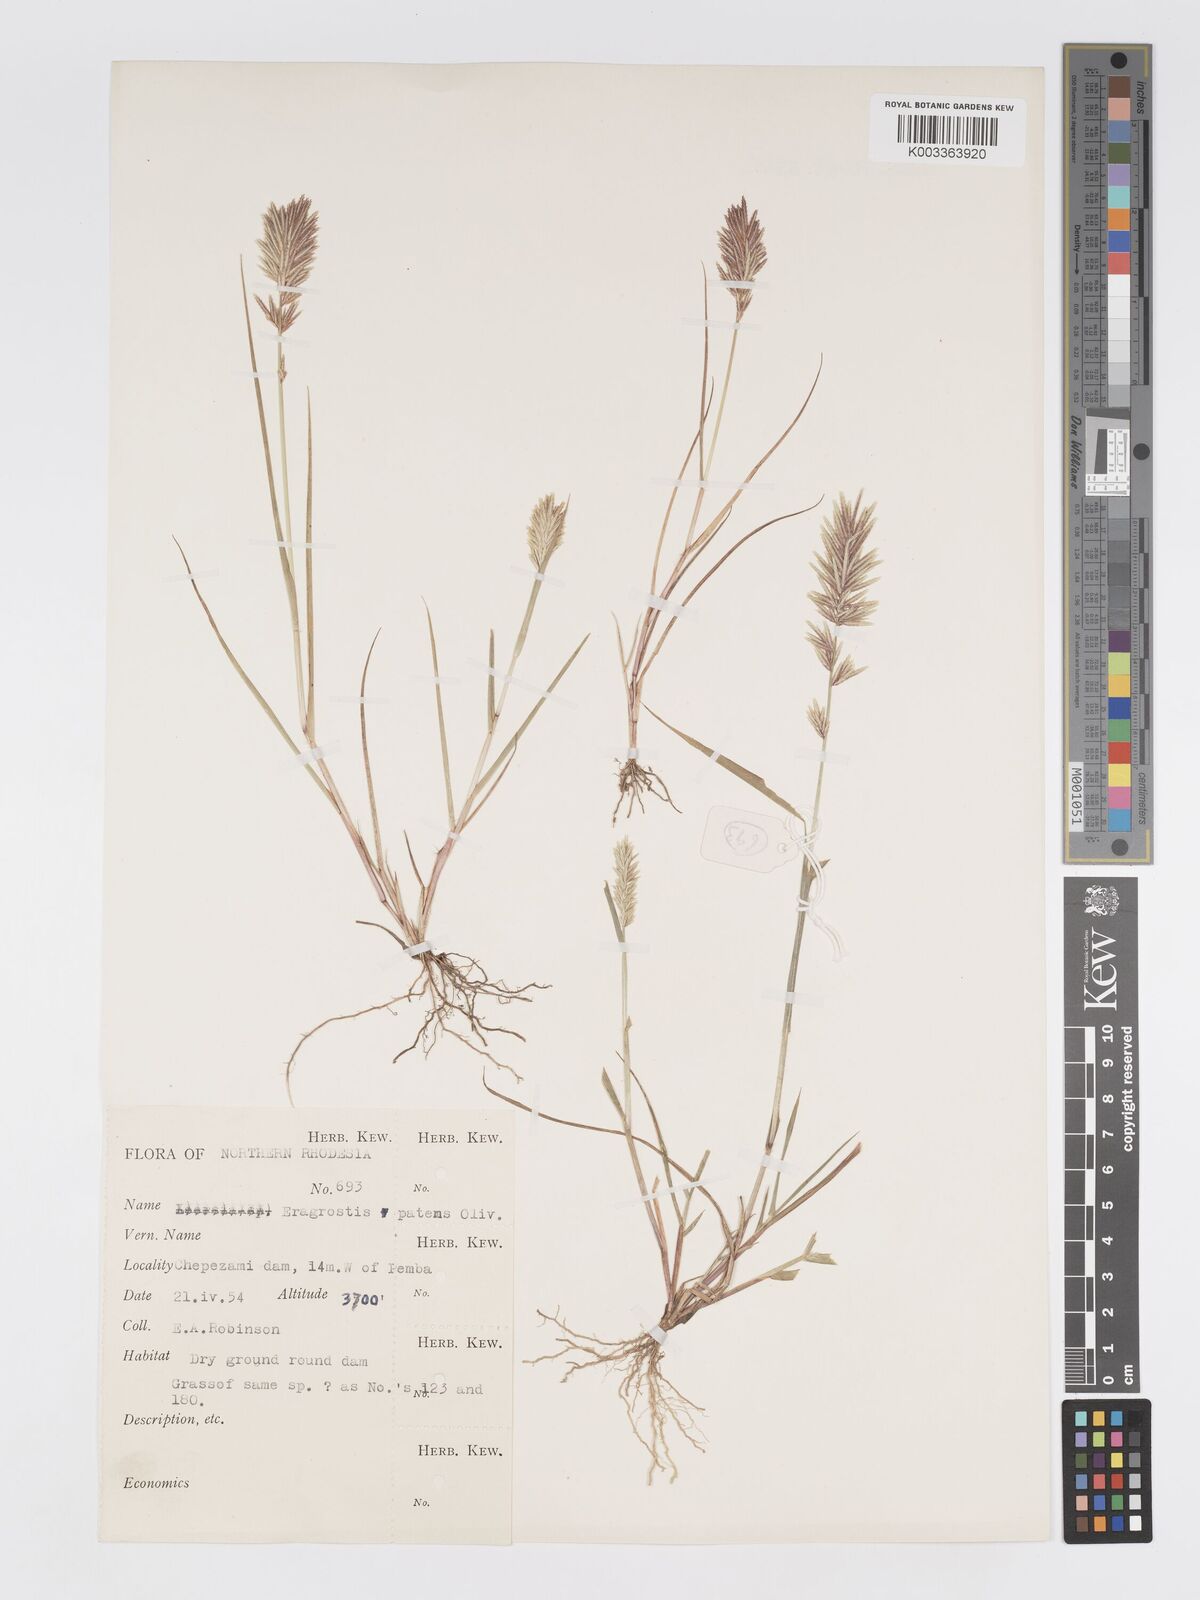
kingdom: Plantae
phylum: Tracheophyta
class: Liliopsida
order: Poales
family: Poaceae
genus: Eragrostis
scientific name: Eragrostis patens
